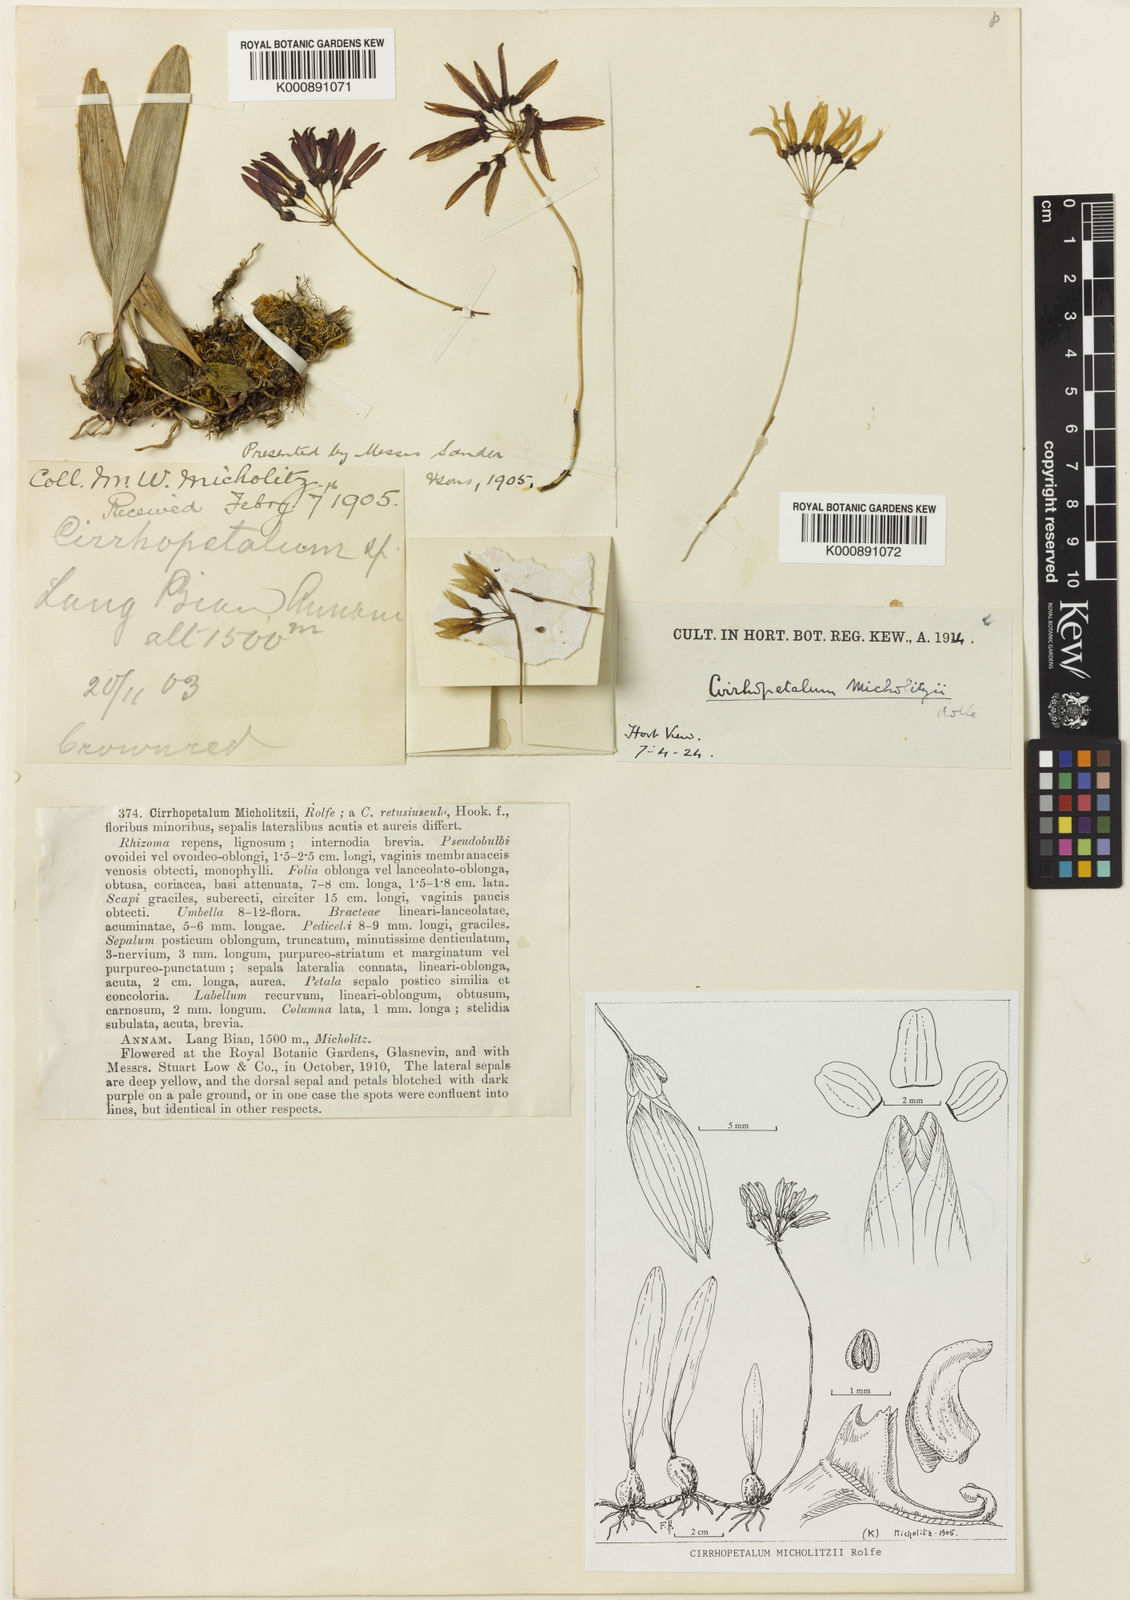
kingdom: Plantae
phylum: Tracheophyta
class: Liliopsida
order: Asparagales
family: Orchidaceae
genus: Bulbophyllum
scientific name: Bulbophyllum grandiflorum
